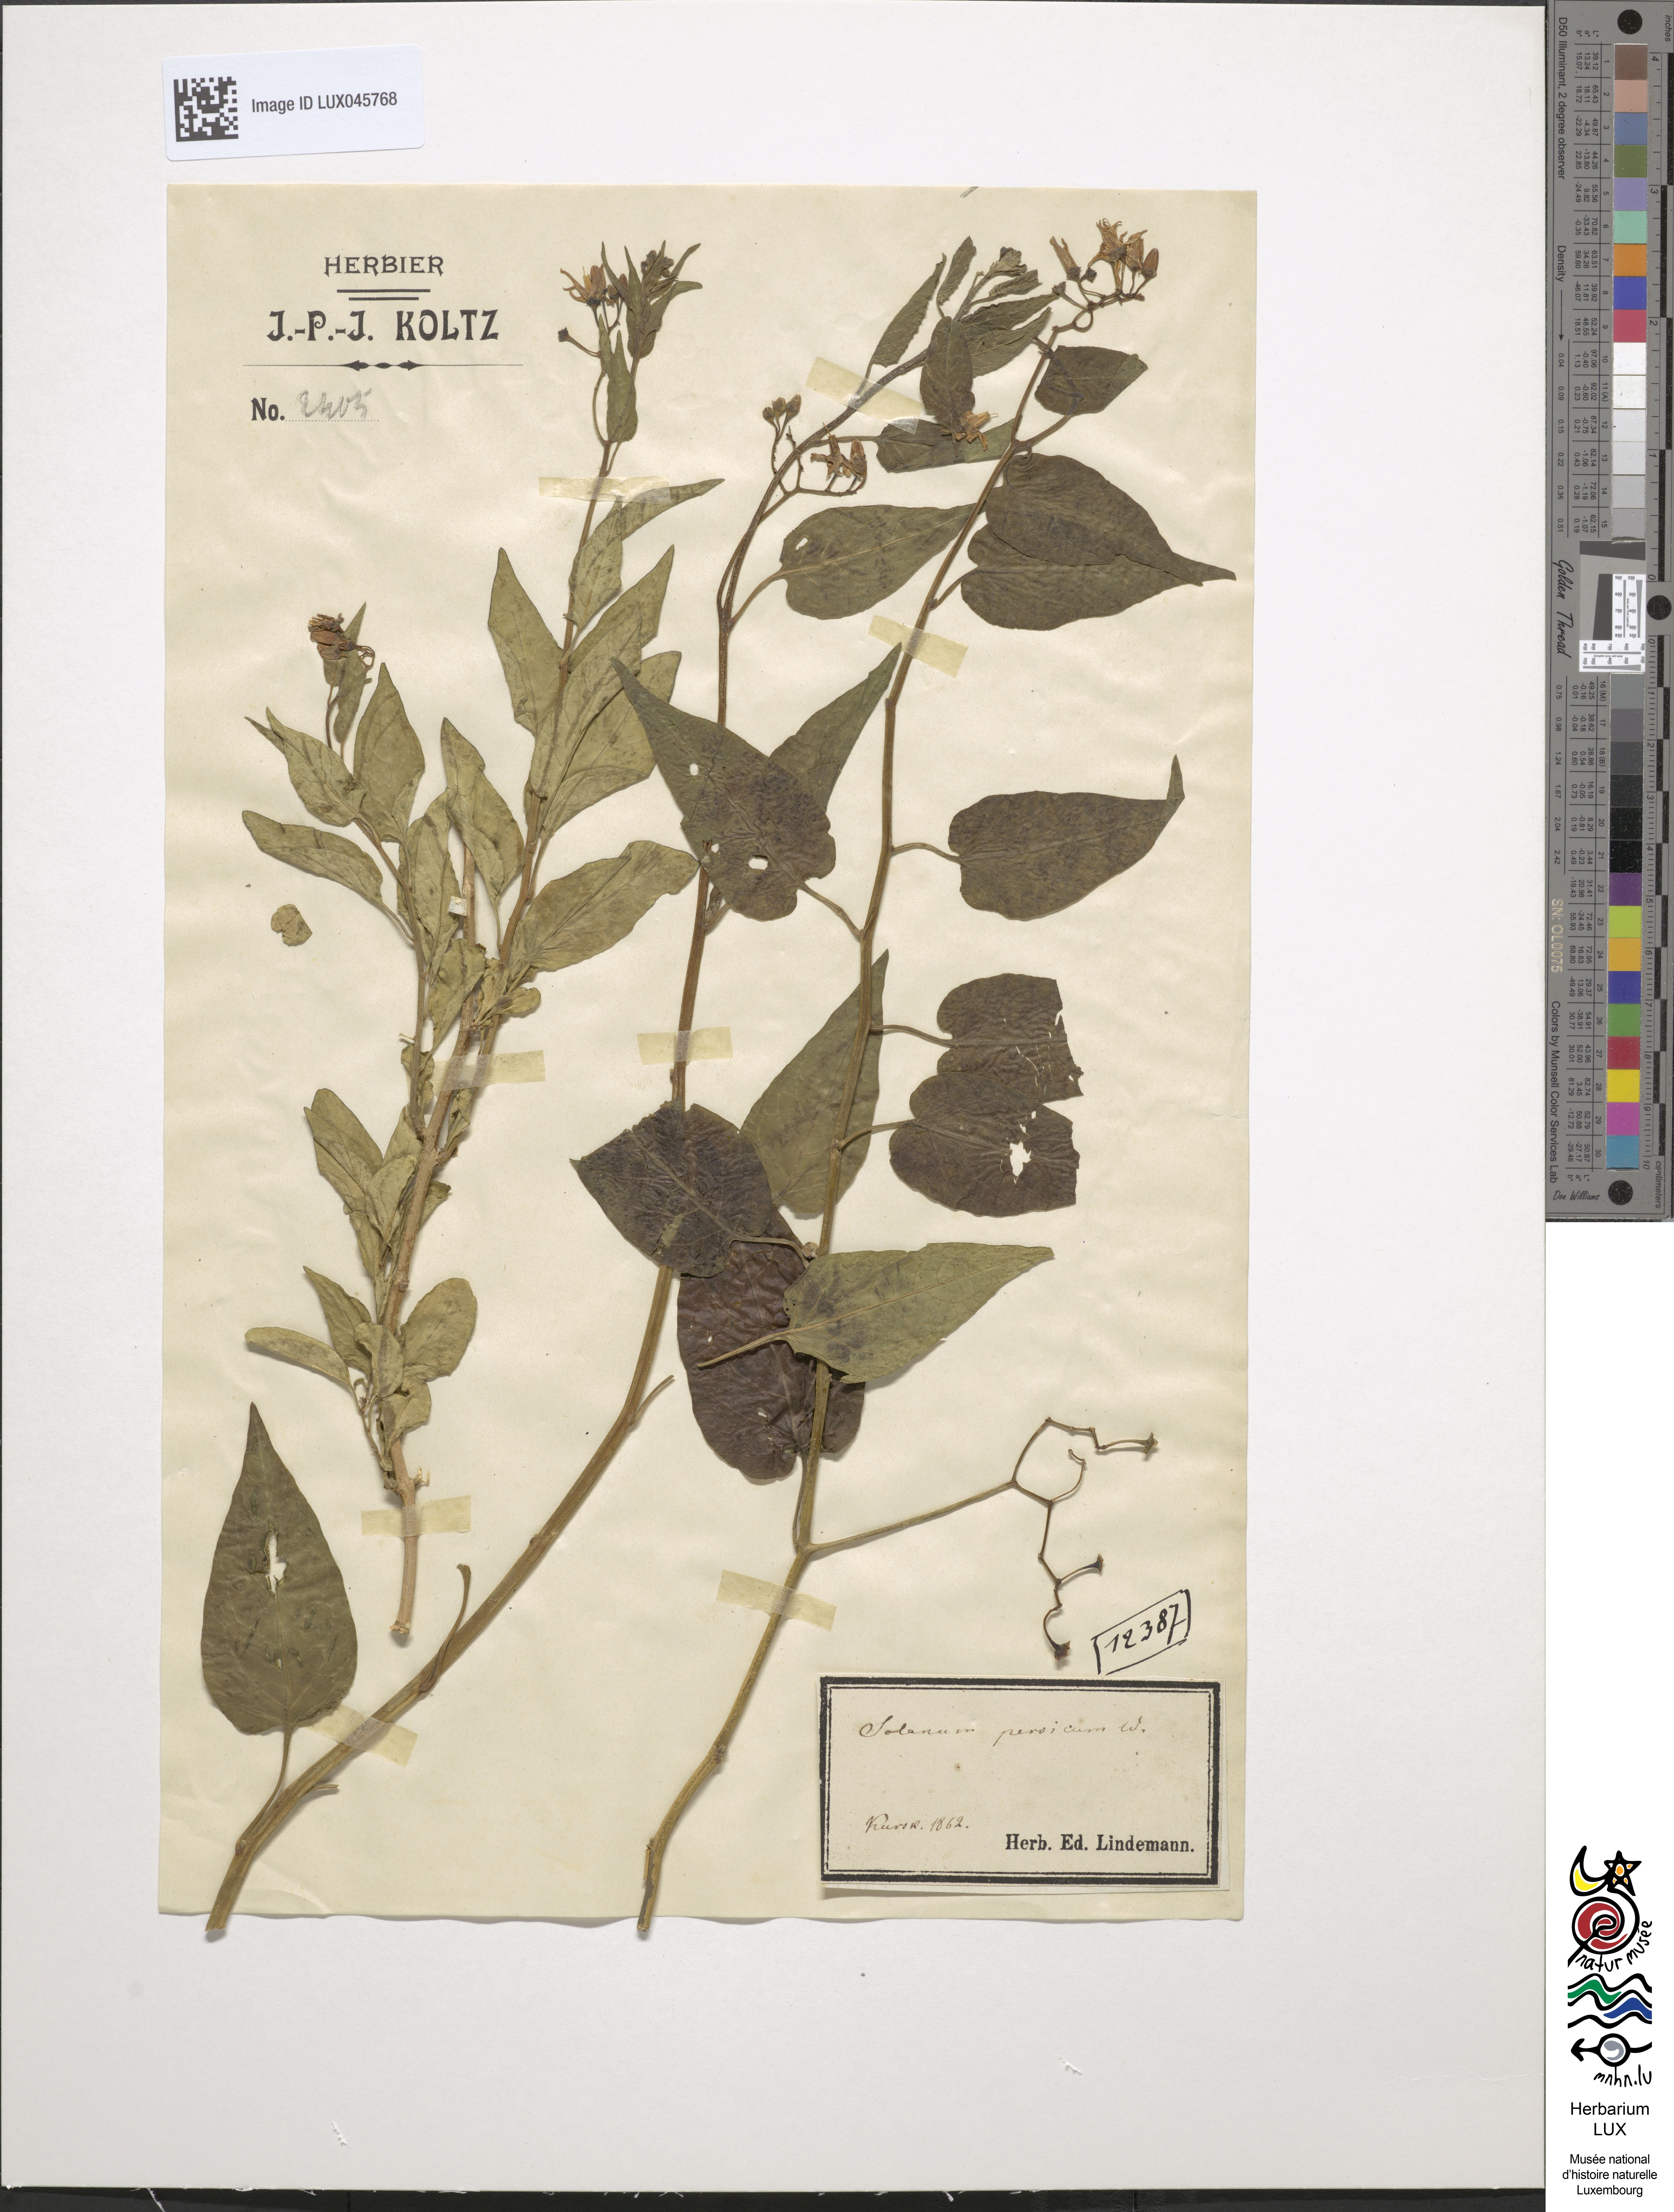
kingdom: Plantae
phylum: Tracheophyta
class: Magnoliopsida
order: Solanales
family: Solanaceae
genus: Solanum
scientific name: Solanum dulcamara
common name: Climbing nightshade
